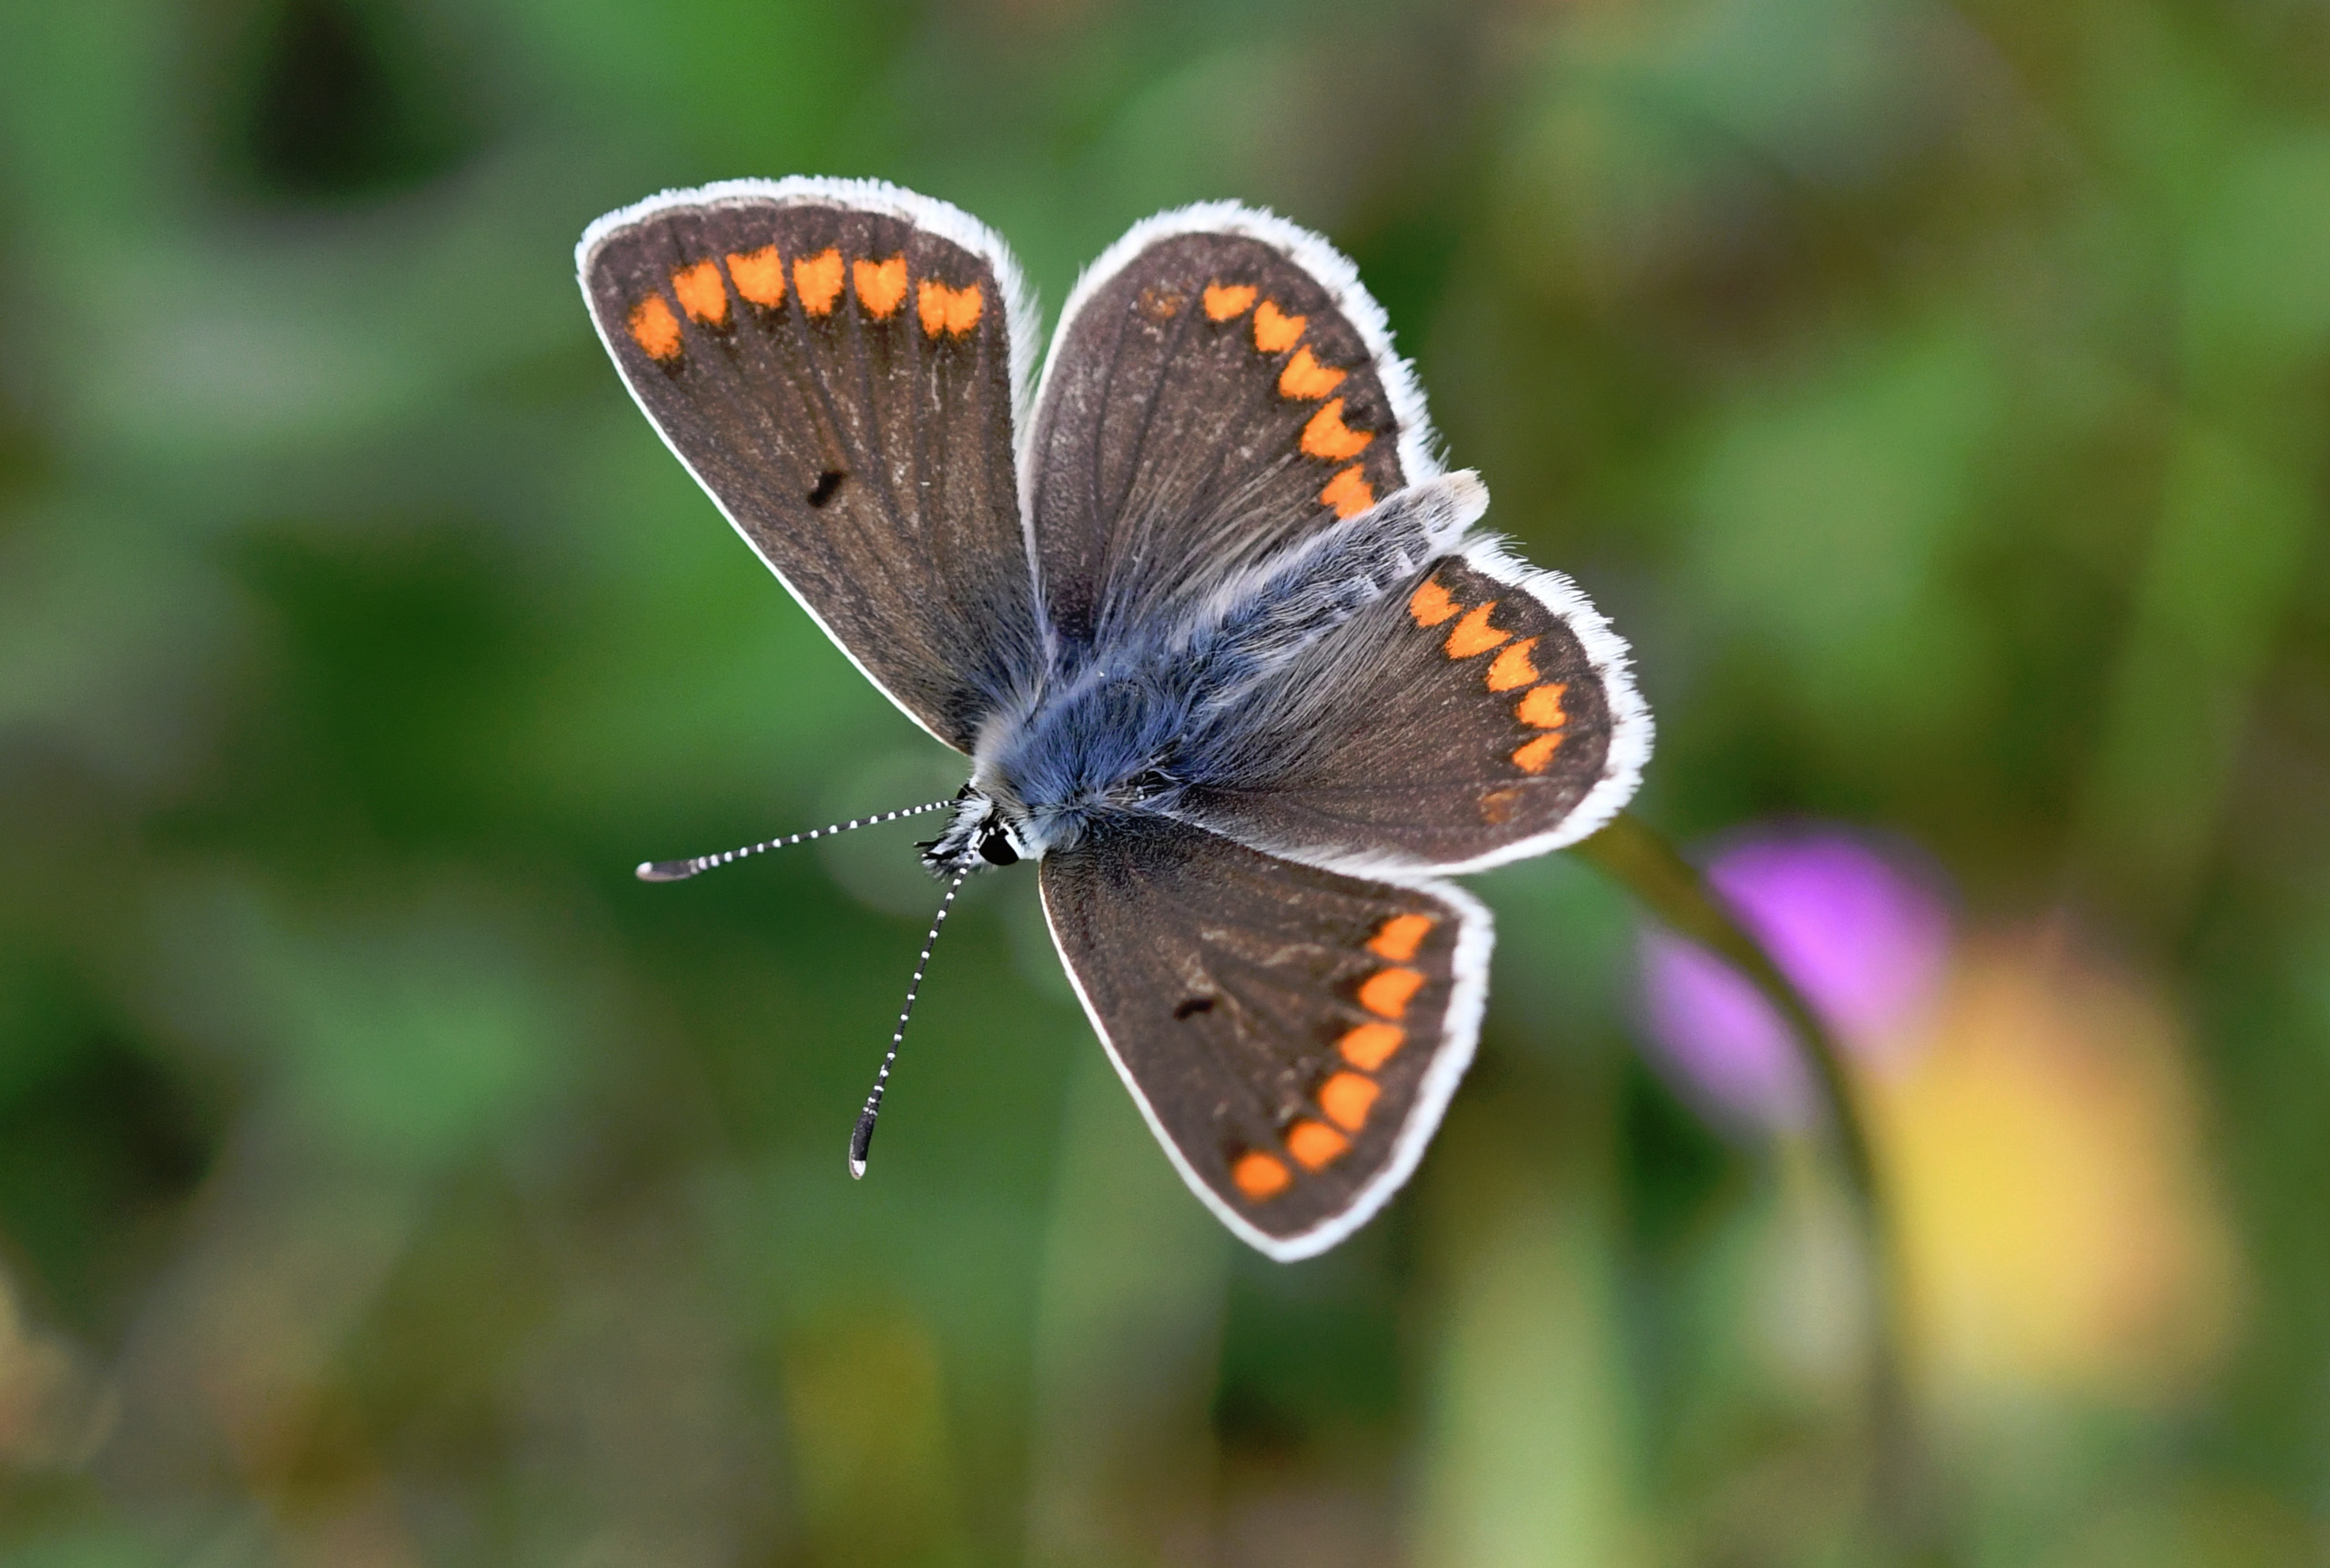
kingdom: Animalia
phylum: Arthropoda
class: Insecta
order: Lepidoptera
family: Lycaenidae
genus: Aricia
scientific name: Aricia agestis
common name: Rødplettet blåfugl
